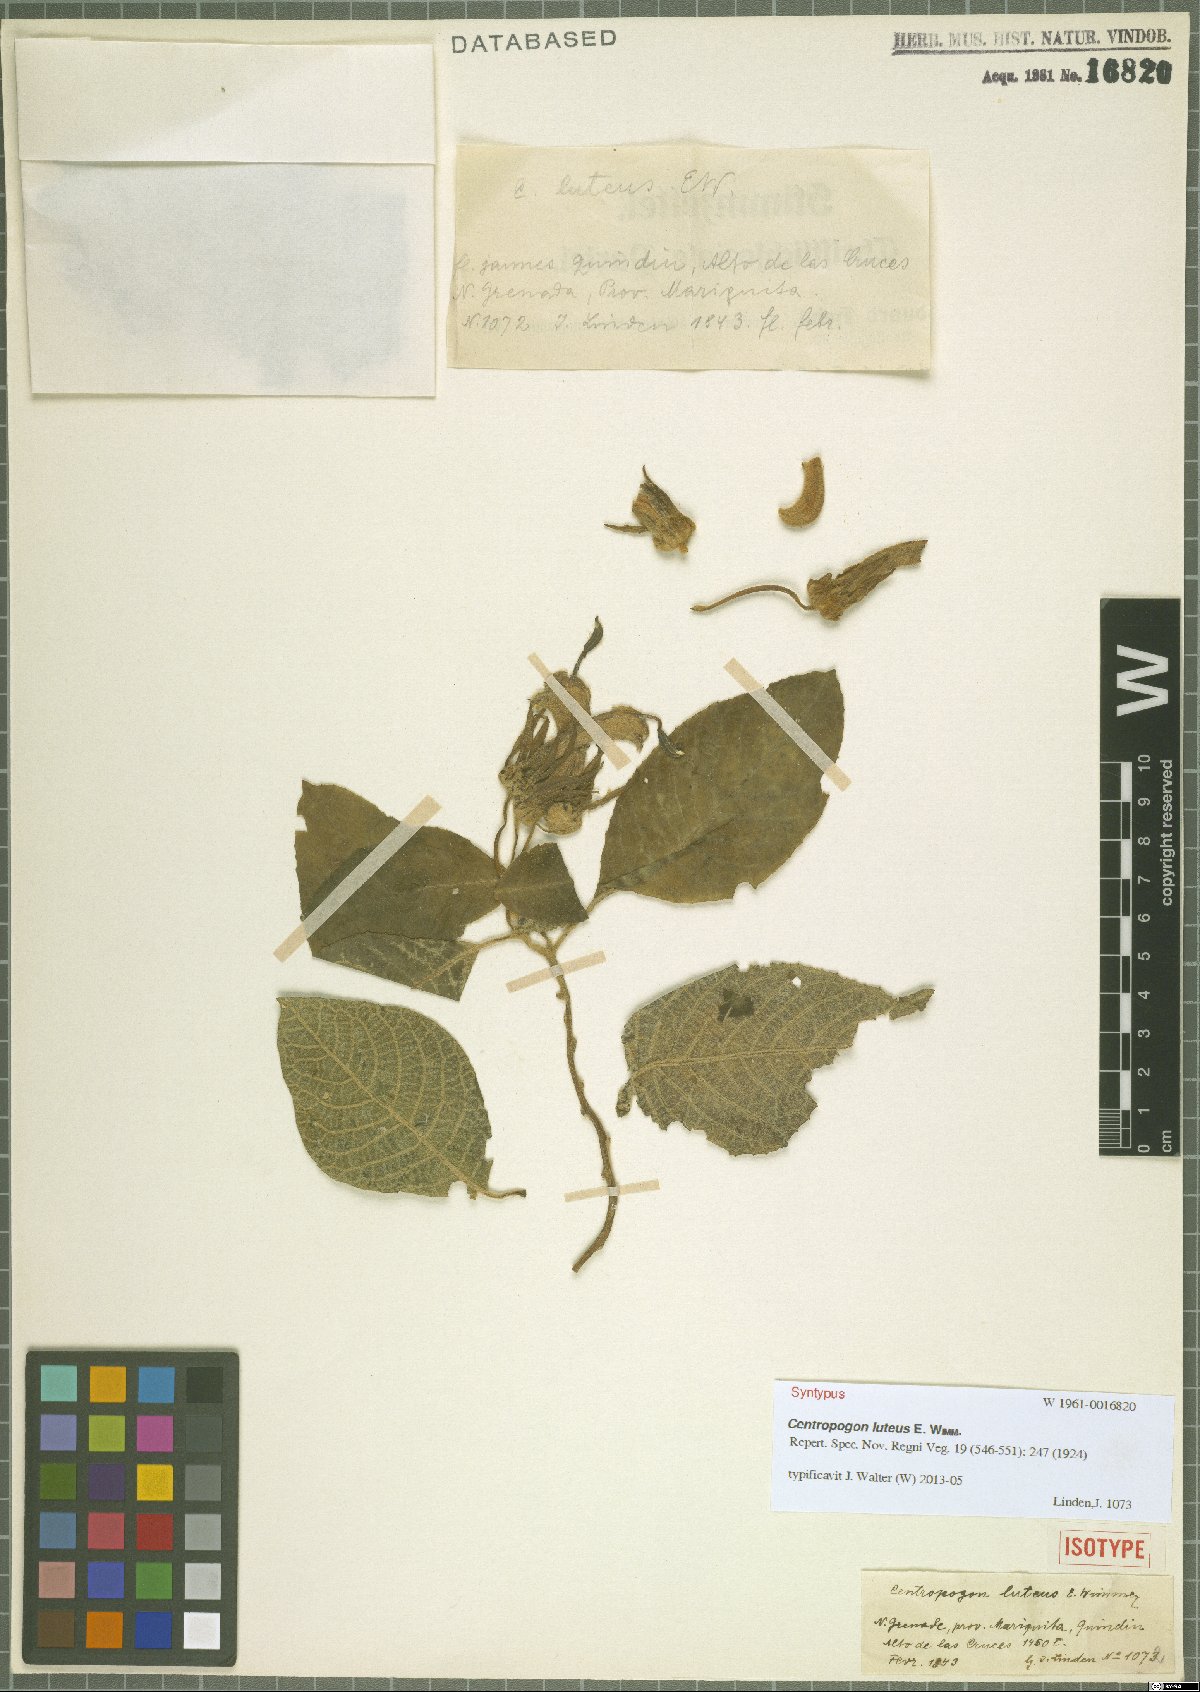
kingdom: Plantae
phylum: Tracheophyta
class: Magnoliopsida
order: Asterales
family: Campanulaceae
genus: Centropogon
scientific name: Centropogon luteus
